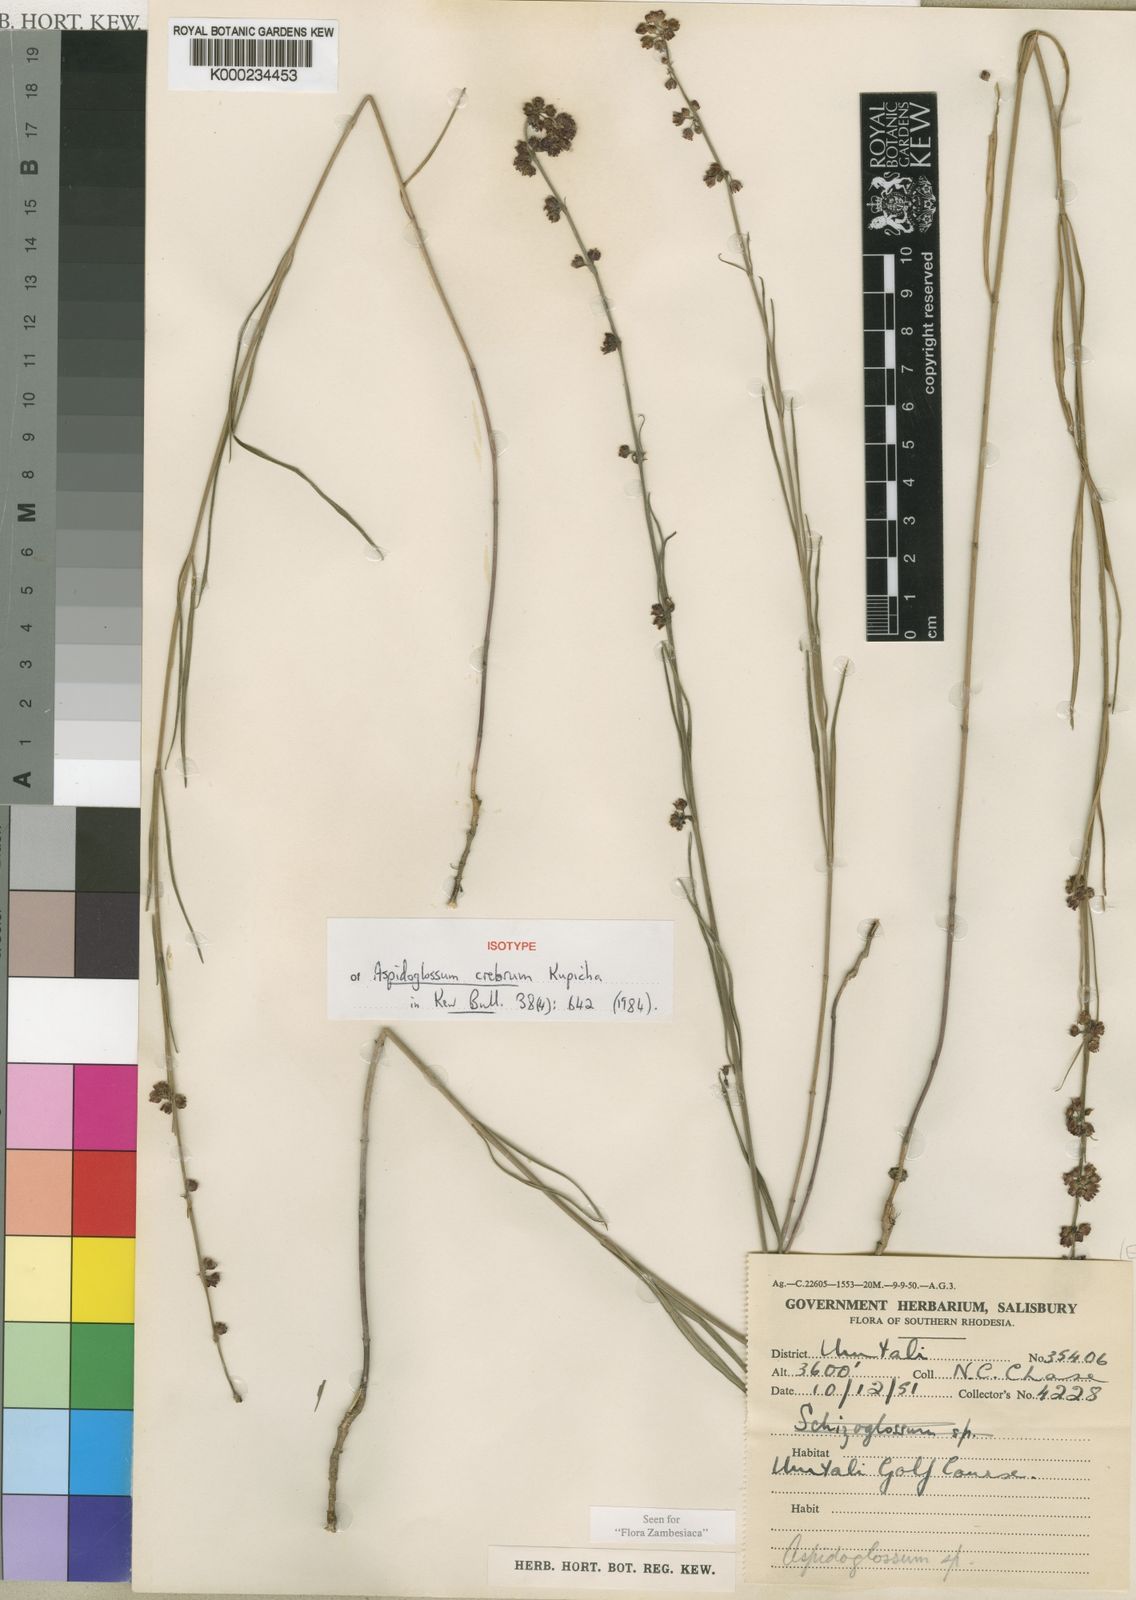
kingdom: Plantae
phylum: Tracheophyta
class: Magnoliopsida
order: Gentianales
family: Apocynaceae
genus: Aspidoglossum
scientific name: Aspidoglossum crebrum
